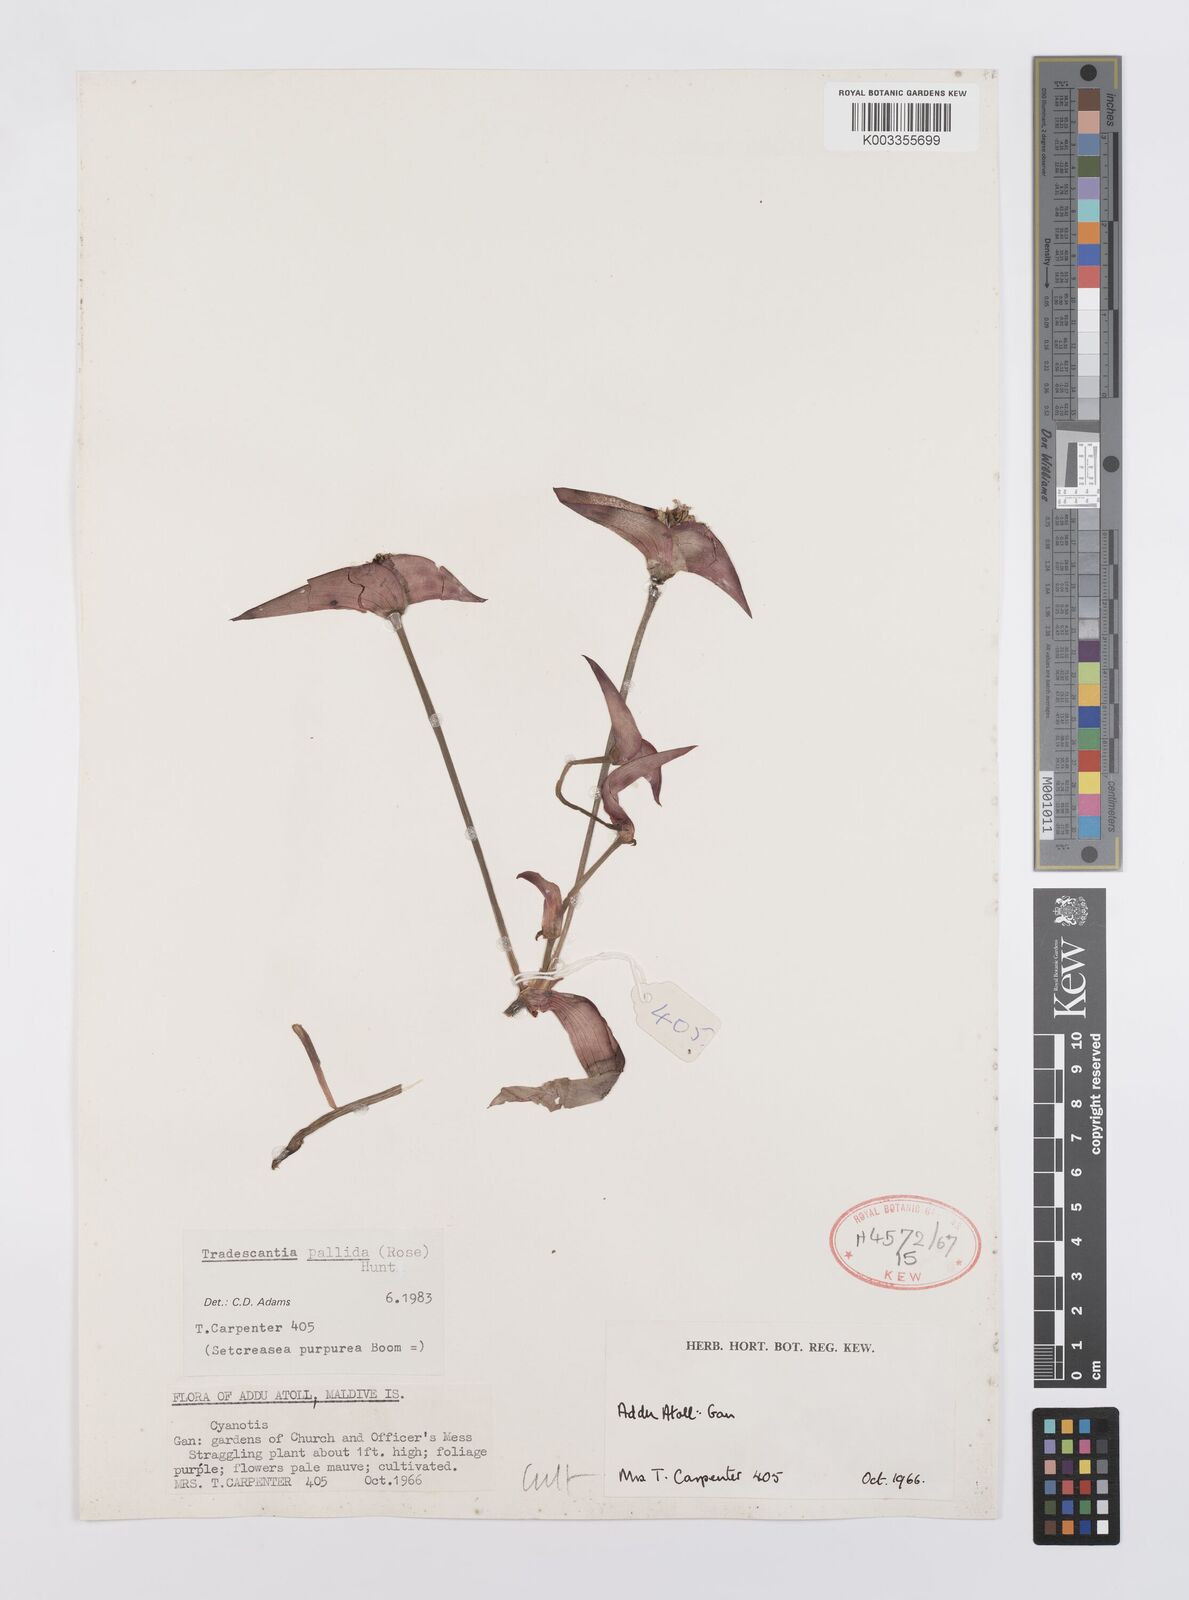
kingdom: Plantae
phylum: Tracheophyta
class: Liliopsida
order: Commelinales
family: Commelinaceae
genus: Tradescantia
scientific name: Tradescantia pallida
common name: Purpleheart
